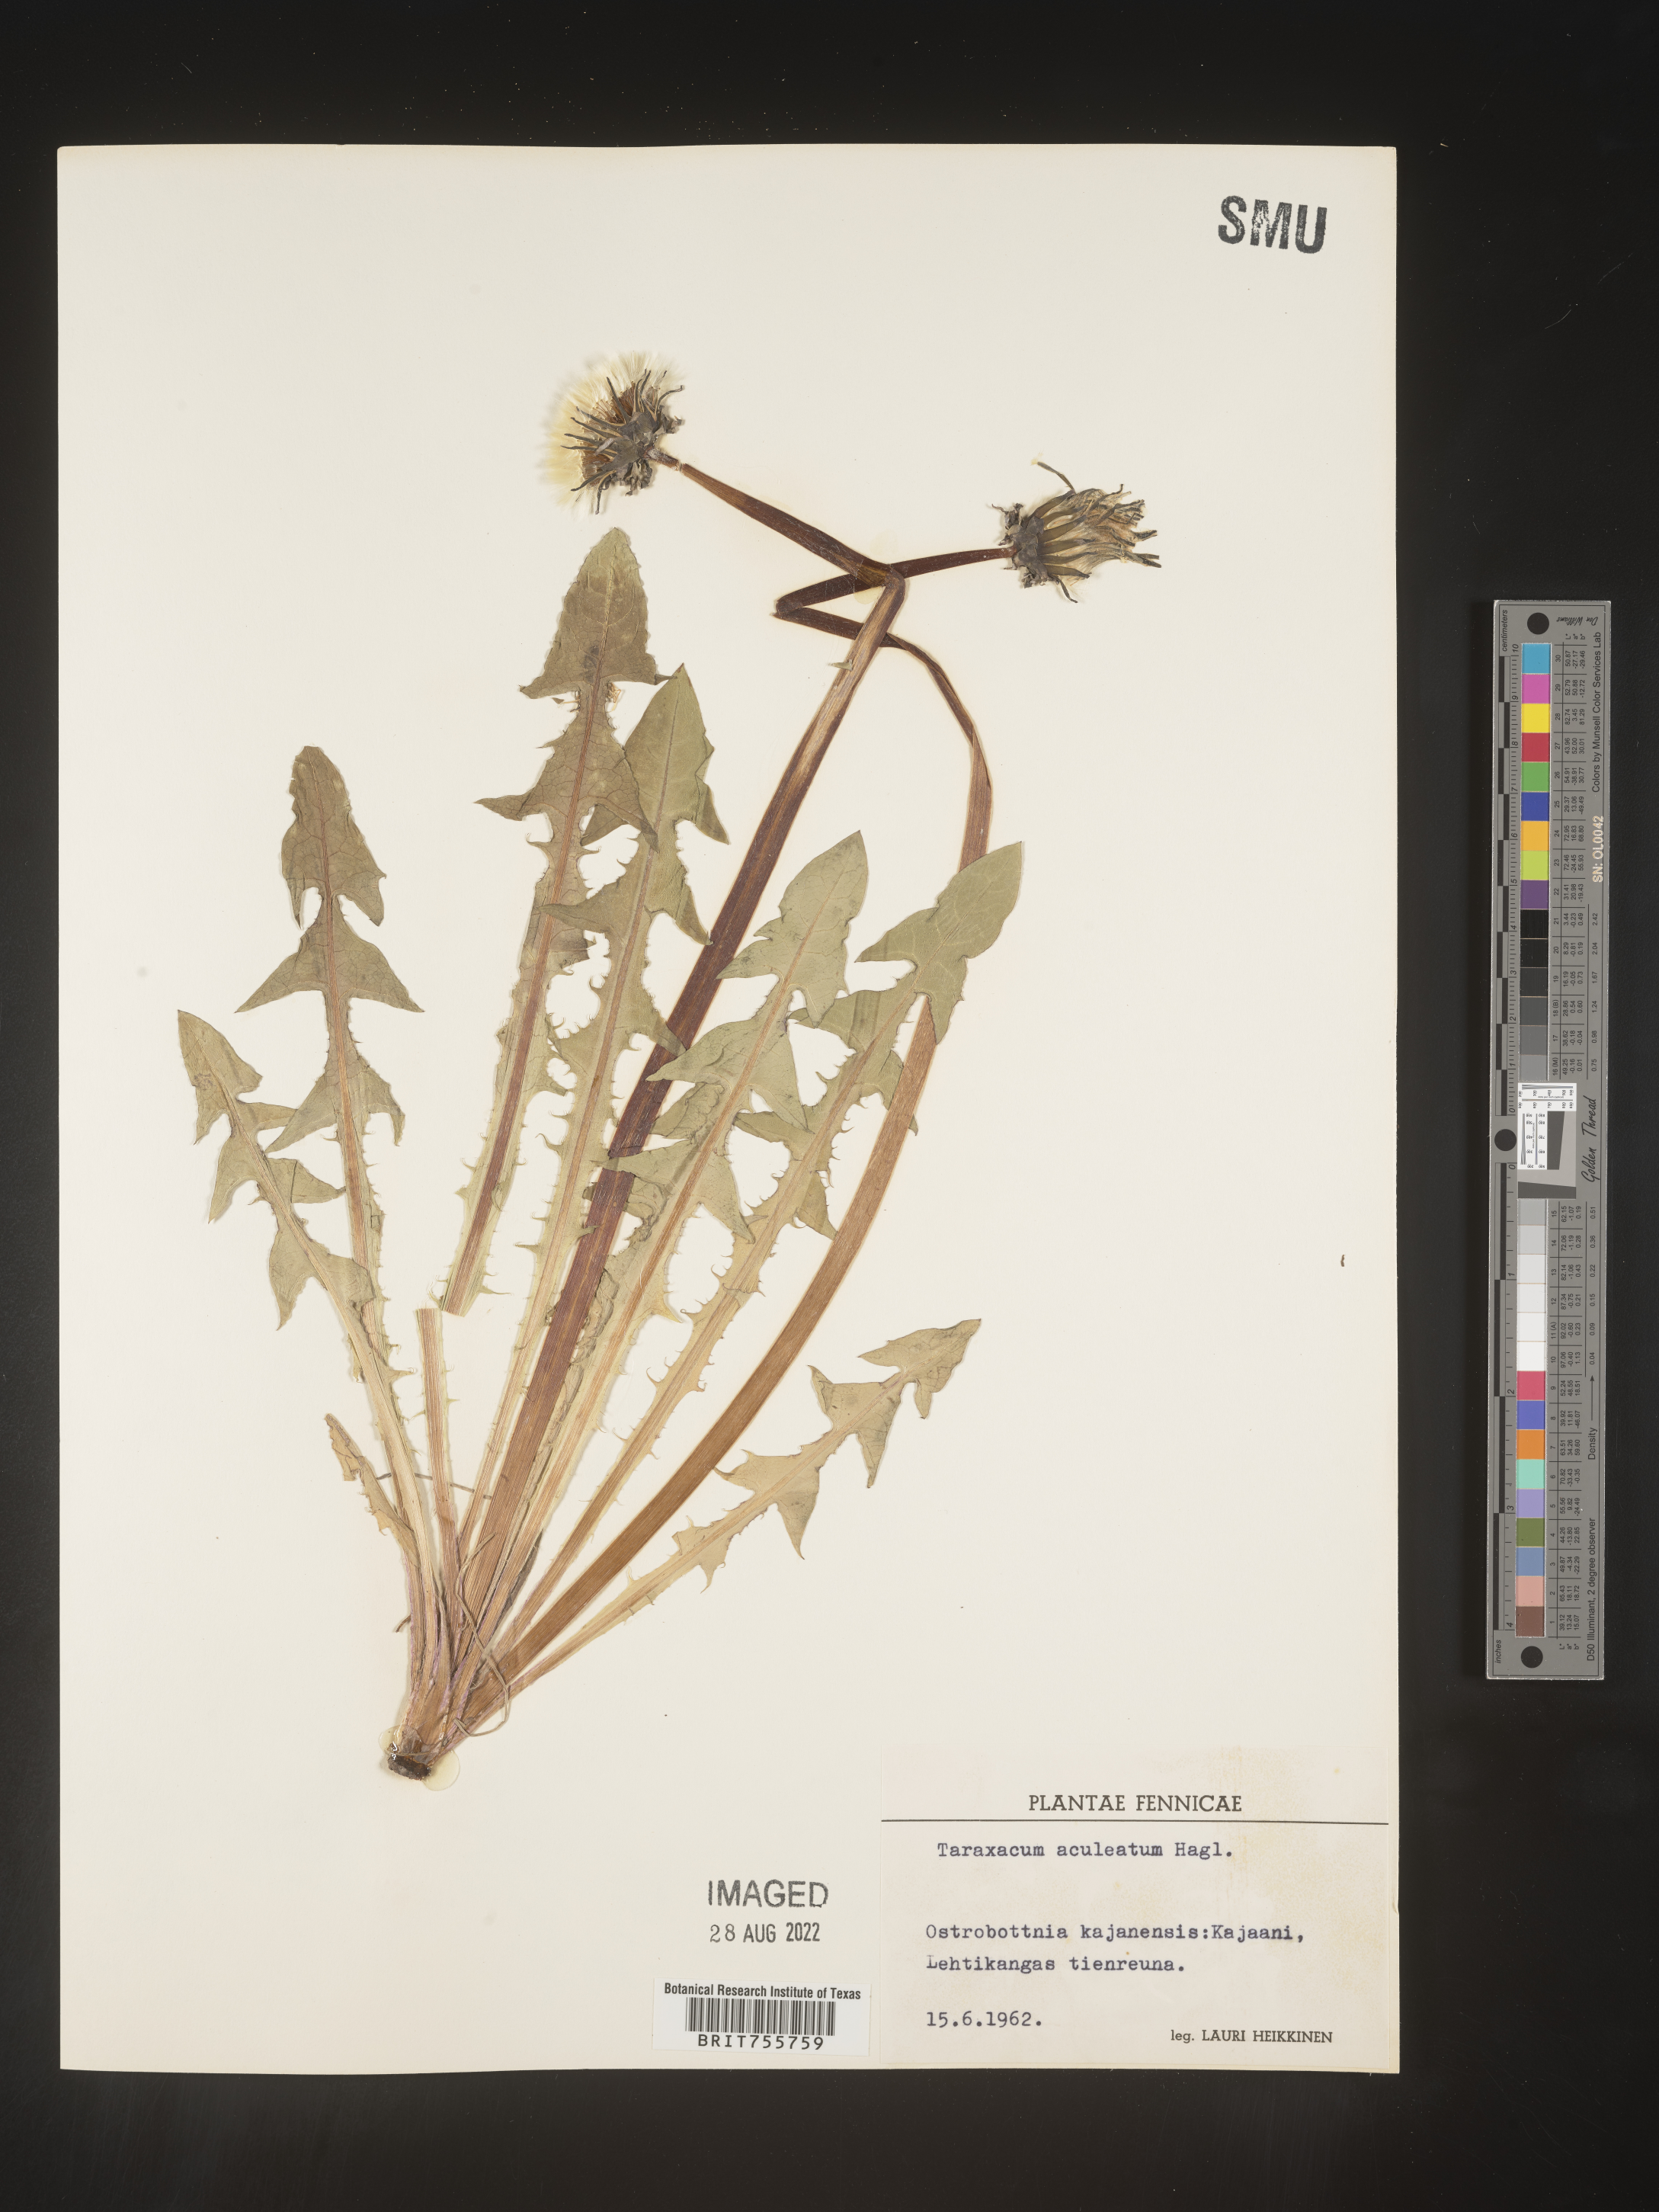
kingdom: Plantae
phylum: Tracheophyta
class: Magnoliopsida
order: Asterales
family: Asteraceae
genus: Taraxacum
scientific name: Taraxacum
